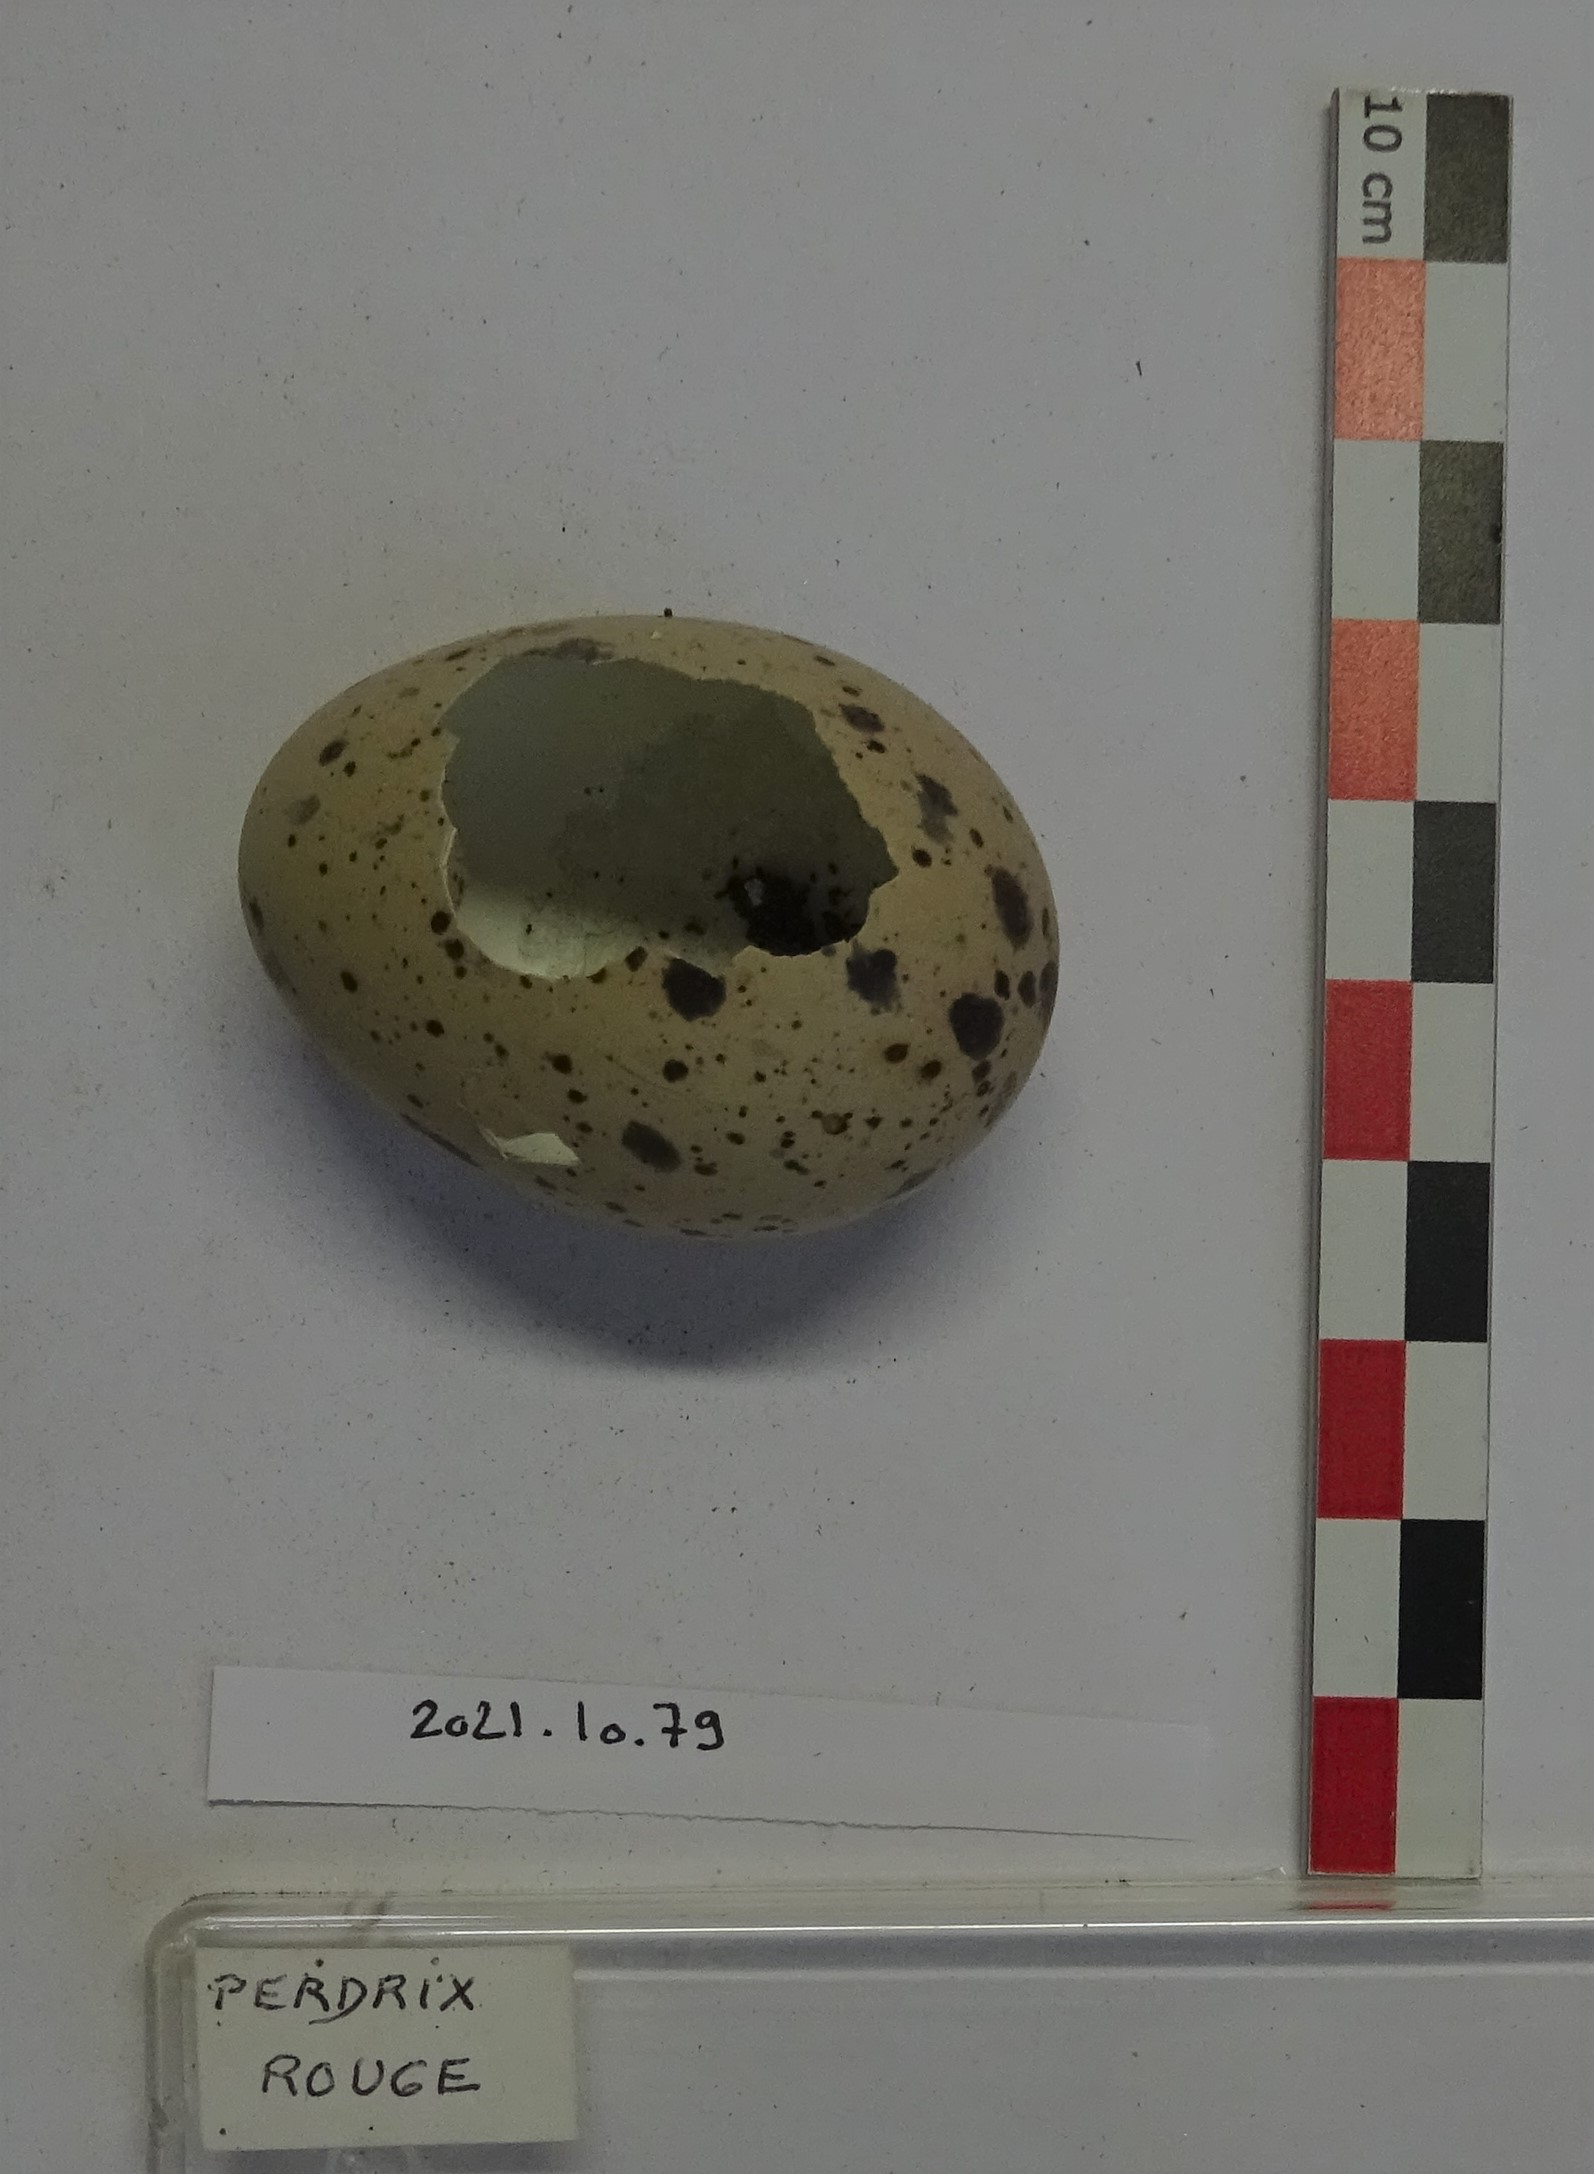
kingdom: Animalia
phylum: Chordata
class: Aves
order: Galliformes
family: Phasianidae
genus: Alectoris
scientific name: Alectoris rufa
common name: Red-legged partridge
